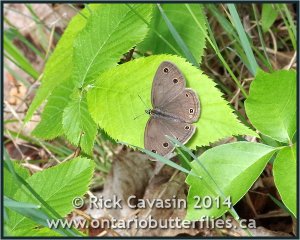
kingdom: Animalia
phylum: Arthropoda
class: Insecta
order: Lepidoptera
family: Nymphalidae
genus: Euptychia
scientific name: Euptychia cymela
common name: Little Wood Satyr
